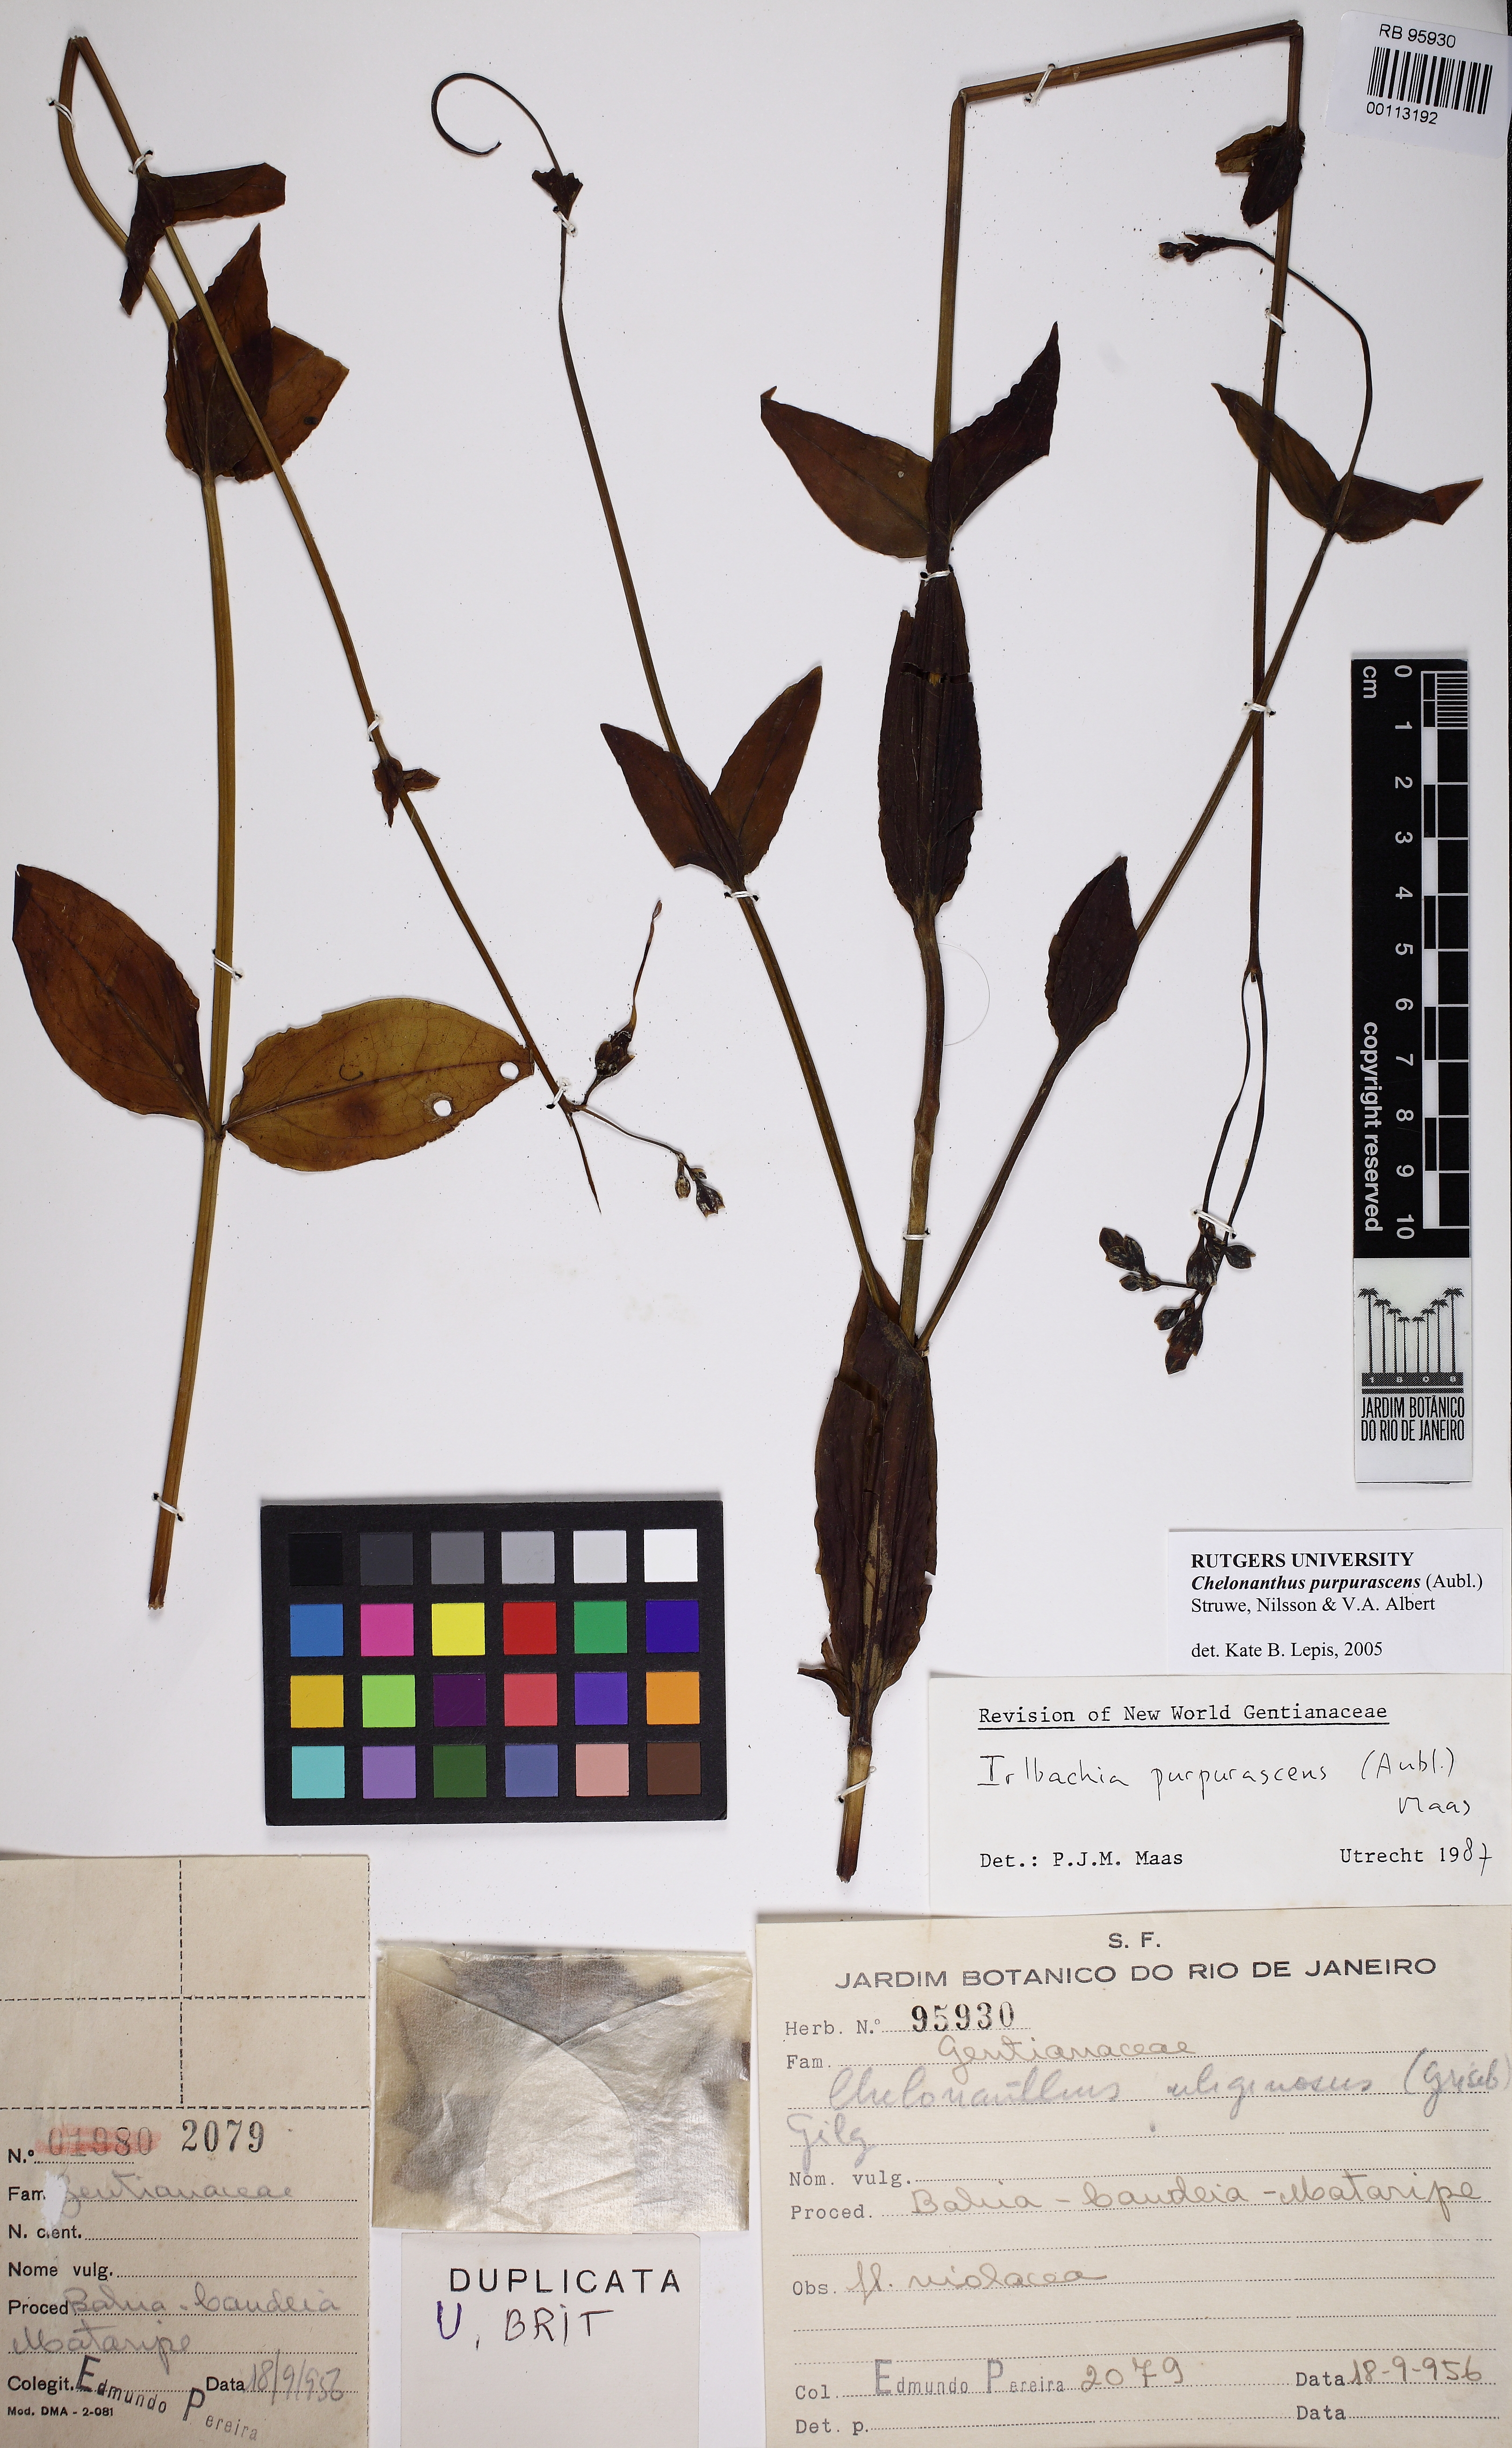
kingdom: Plantae
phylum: Tracheophyta
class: Magnoliopsida
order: Gentianales
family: Gentianaceae
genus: Chelonanthus
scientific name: Chelonanthus purpurascens
